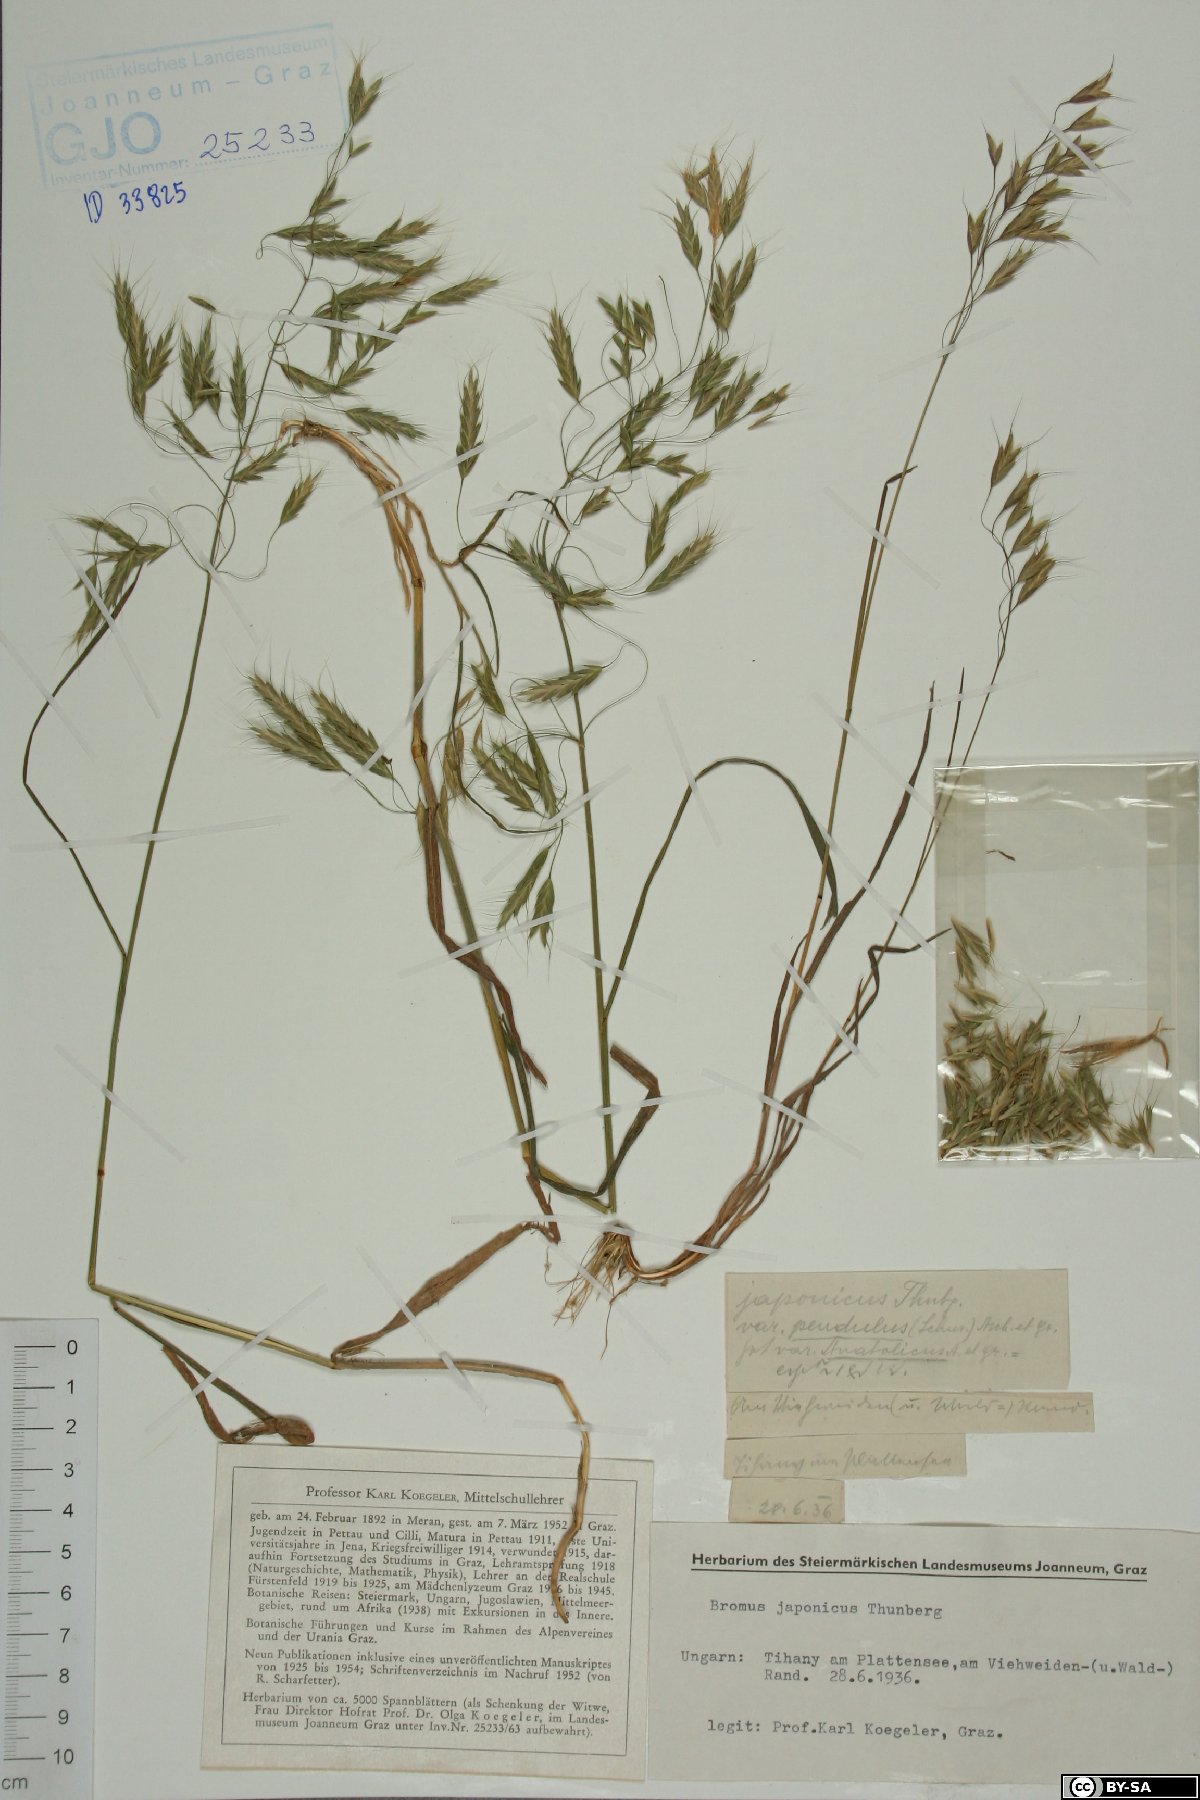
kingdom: Plantae
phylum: Tracheophyta
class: Liliopsida
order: Poales
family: Poaceae
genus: Bromus
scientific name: Bromus japonicus
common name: Japanese brome
